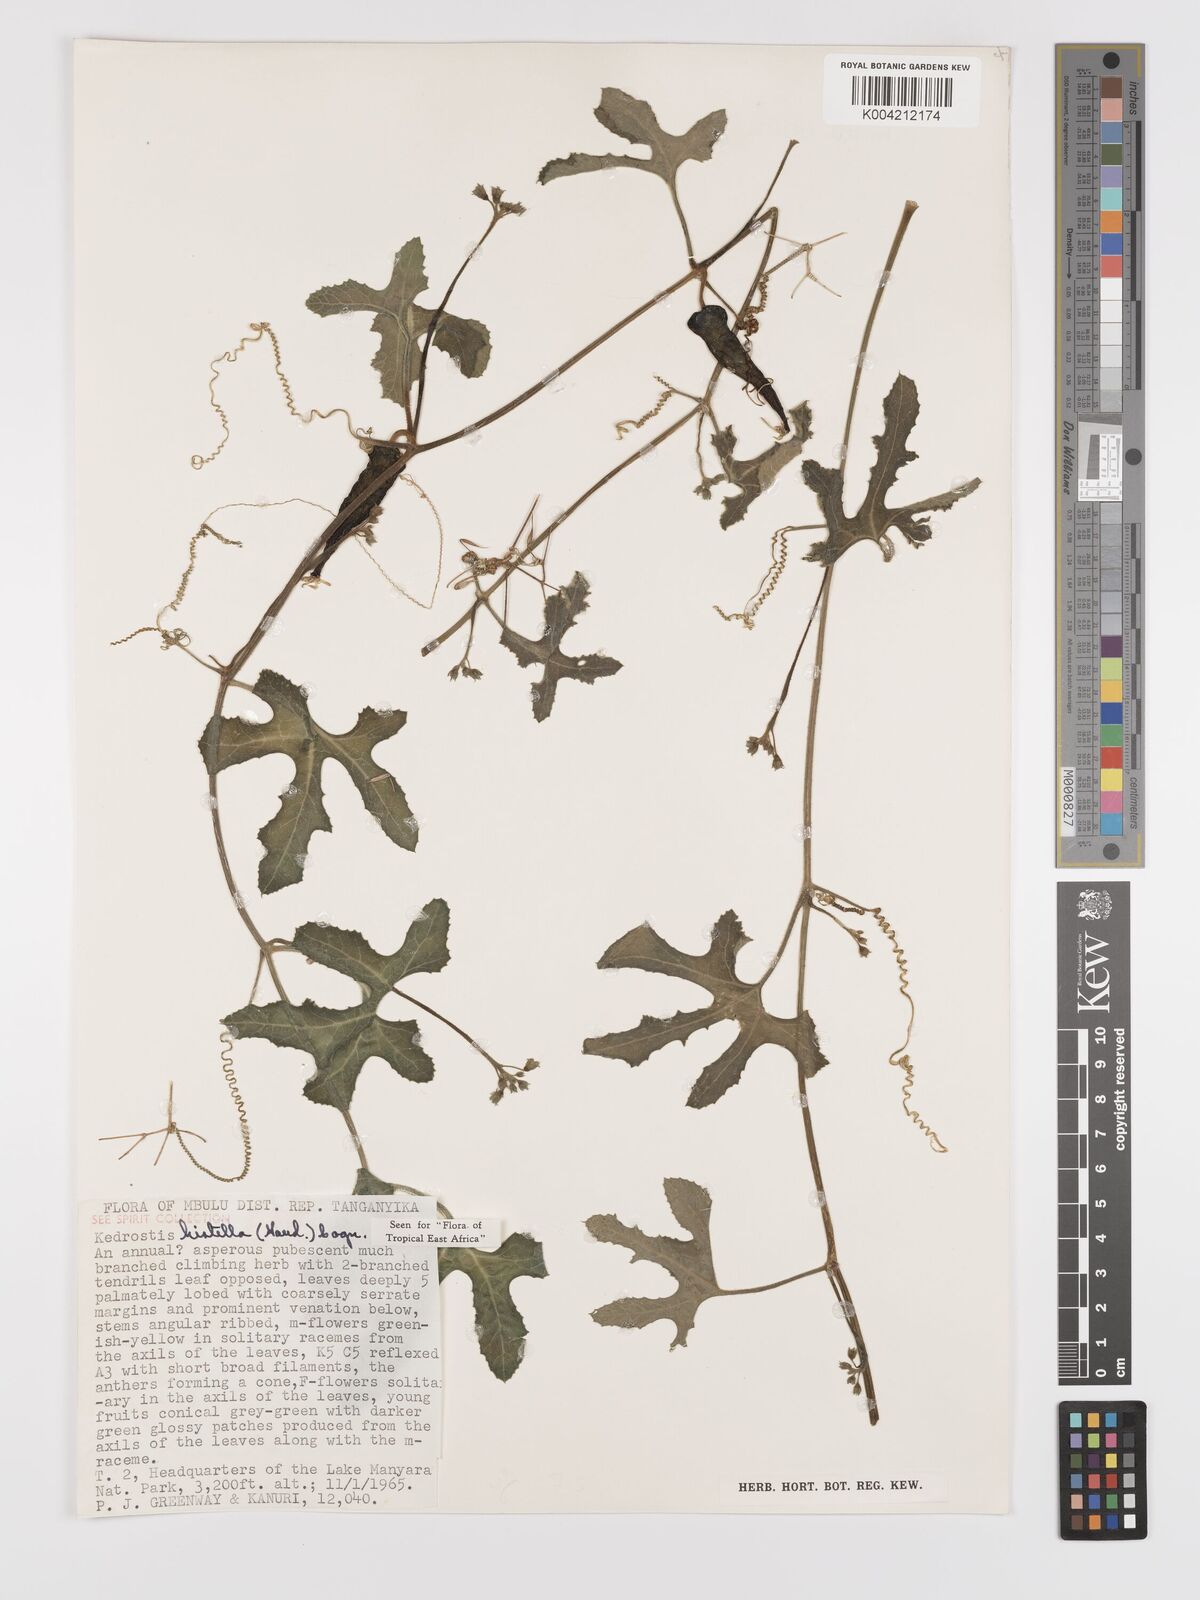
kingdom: Plantae
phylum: Tracheophyta
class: Magnoliopsida
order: Cucurbitales
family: Cucurbitaceae
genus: Kedrostis
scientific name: Kedrostis leloja
